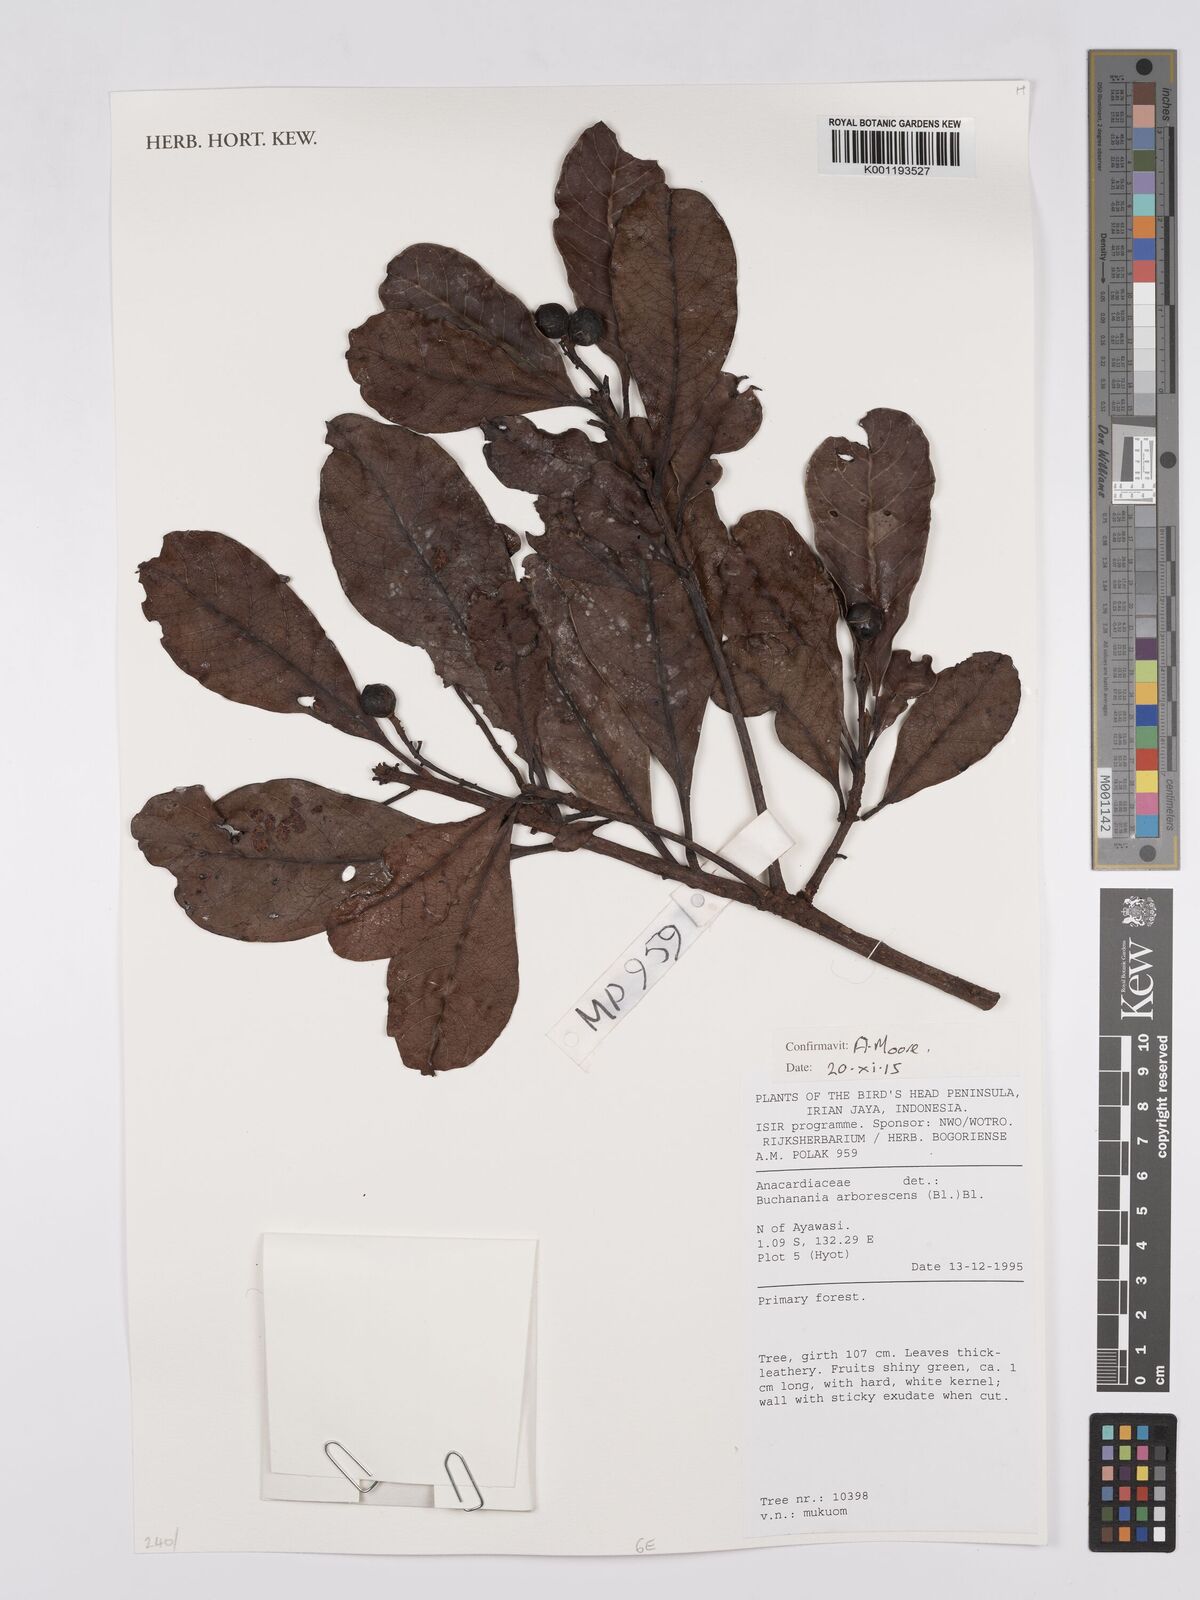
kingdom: Plantae
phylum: Tracheophyta
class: Magnoliopsida
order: Sapindales
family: Anacardiaceae
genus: Buchanania
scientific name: Buchanania arborescens
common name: Sparrow’s mango
